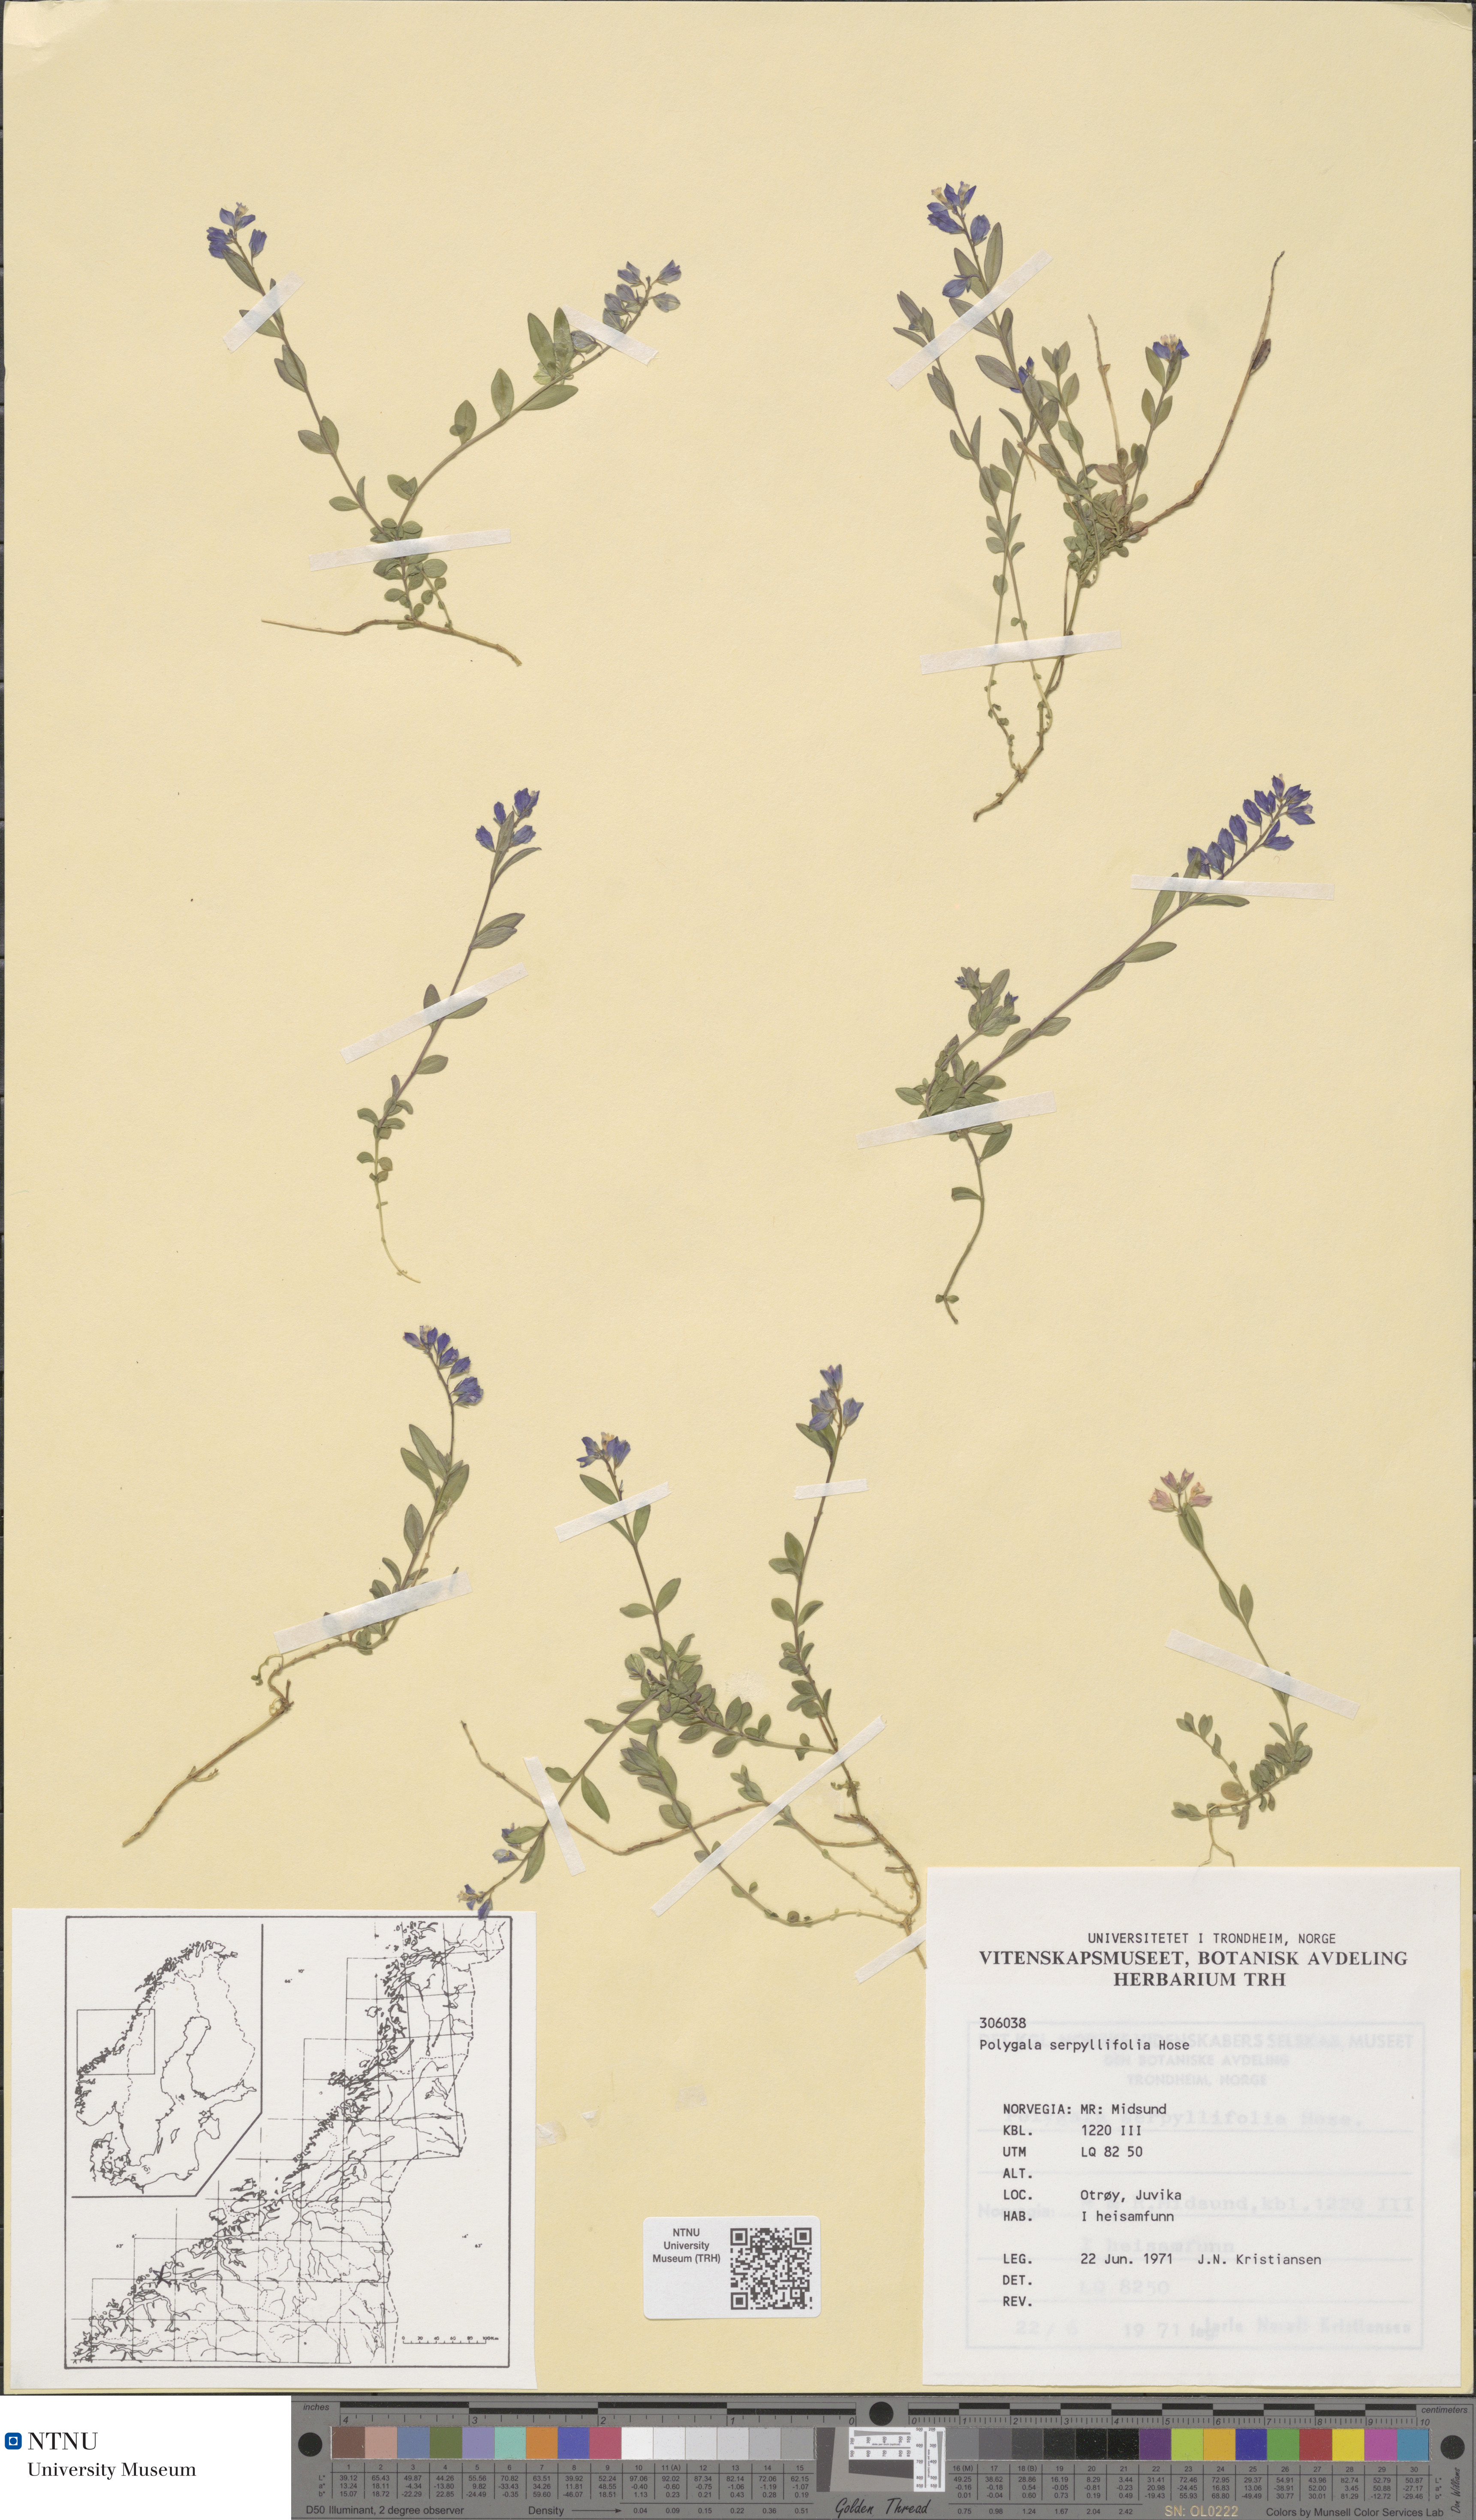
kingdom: Plantae
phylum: Tracheophyta
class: Magnoliopsida
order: Fabales
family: Polygalaceae
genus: Polygala
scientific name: Polygala serpyllifolia
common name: Heath milkwort
